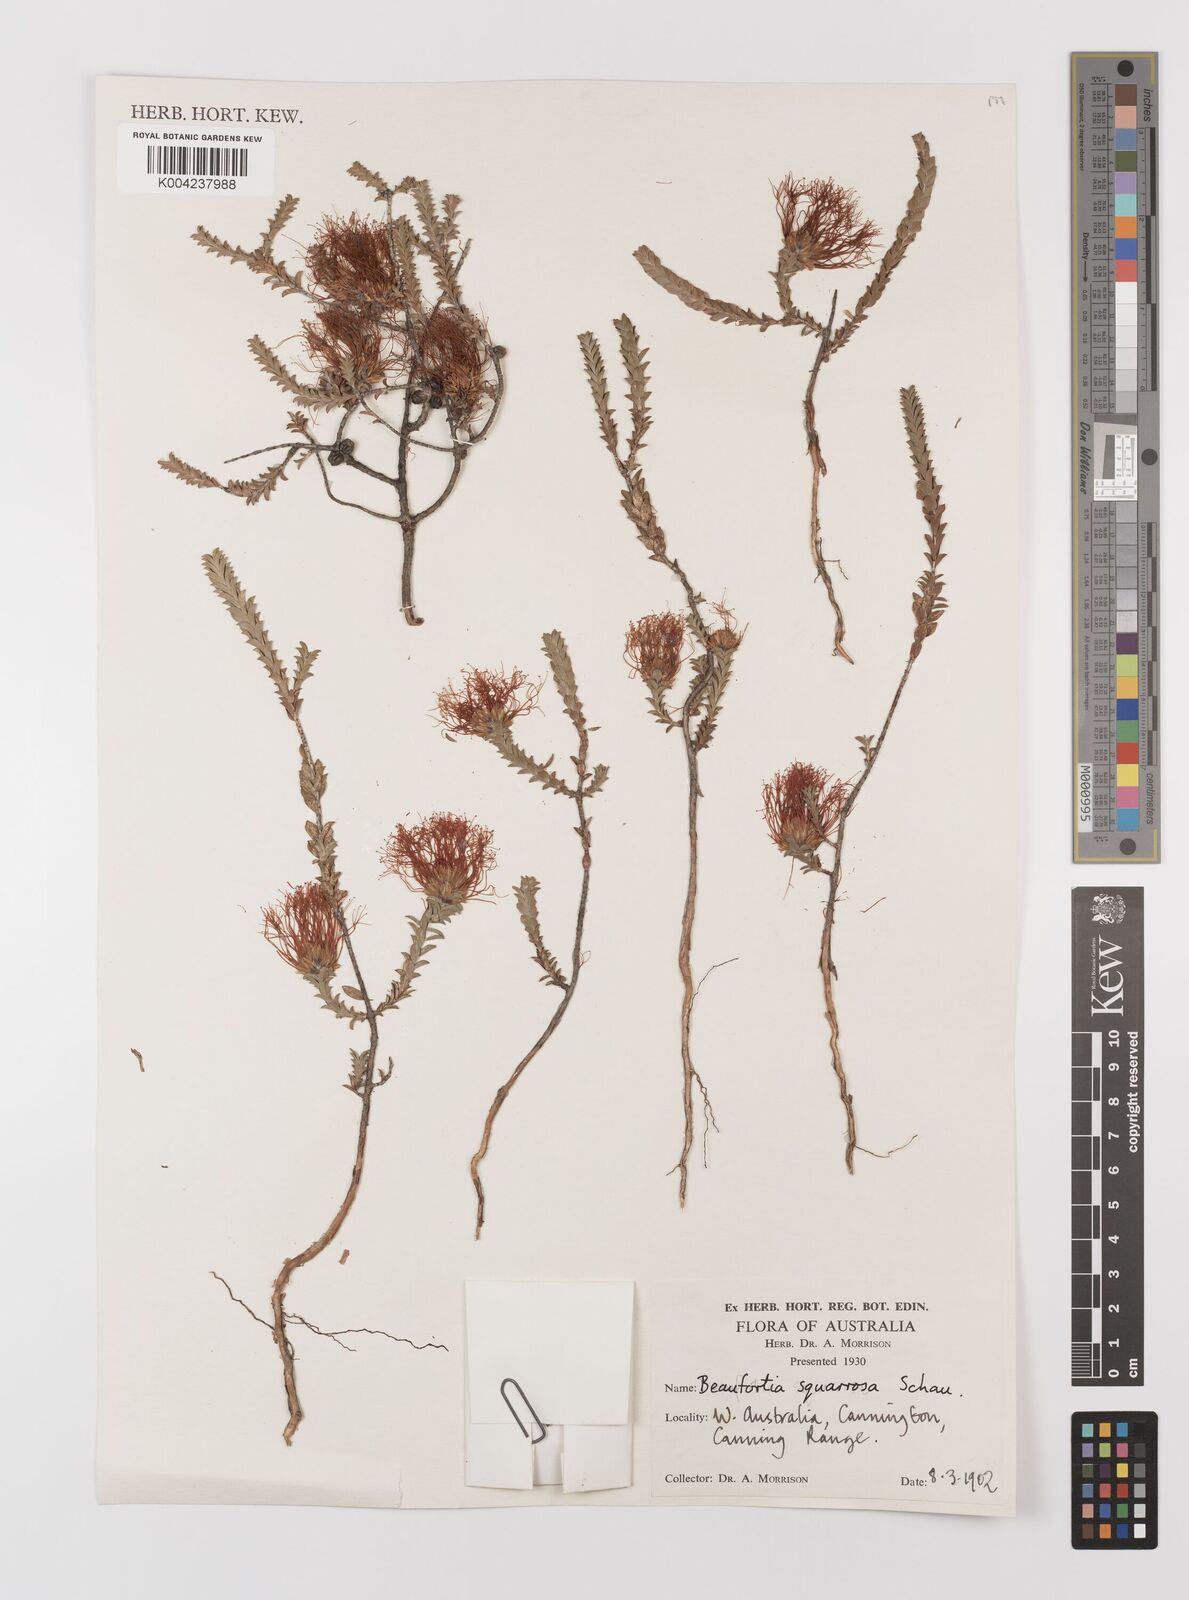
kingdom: Plantae
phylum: Tracheophyta
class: Magnoliopsida
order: Myrtales
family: Myrtaceae
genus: Melaleuca
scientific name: Melaleuca pulcherrima
